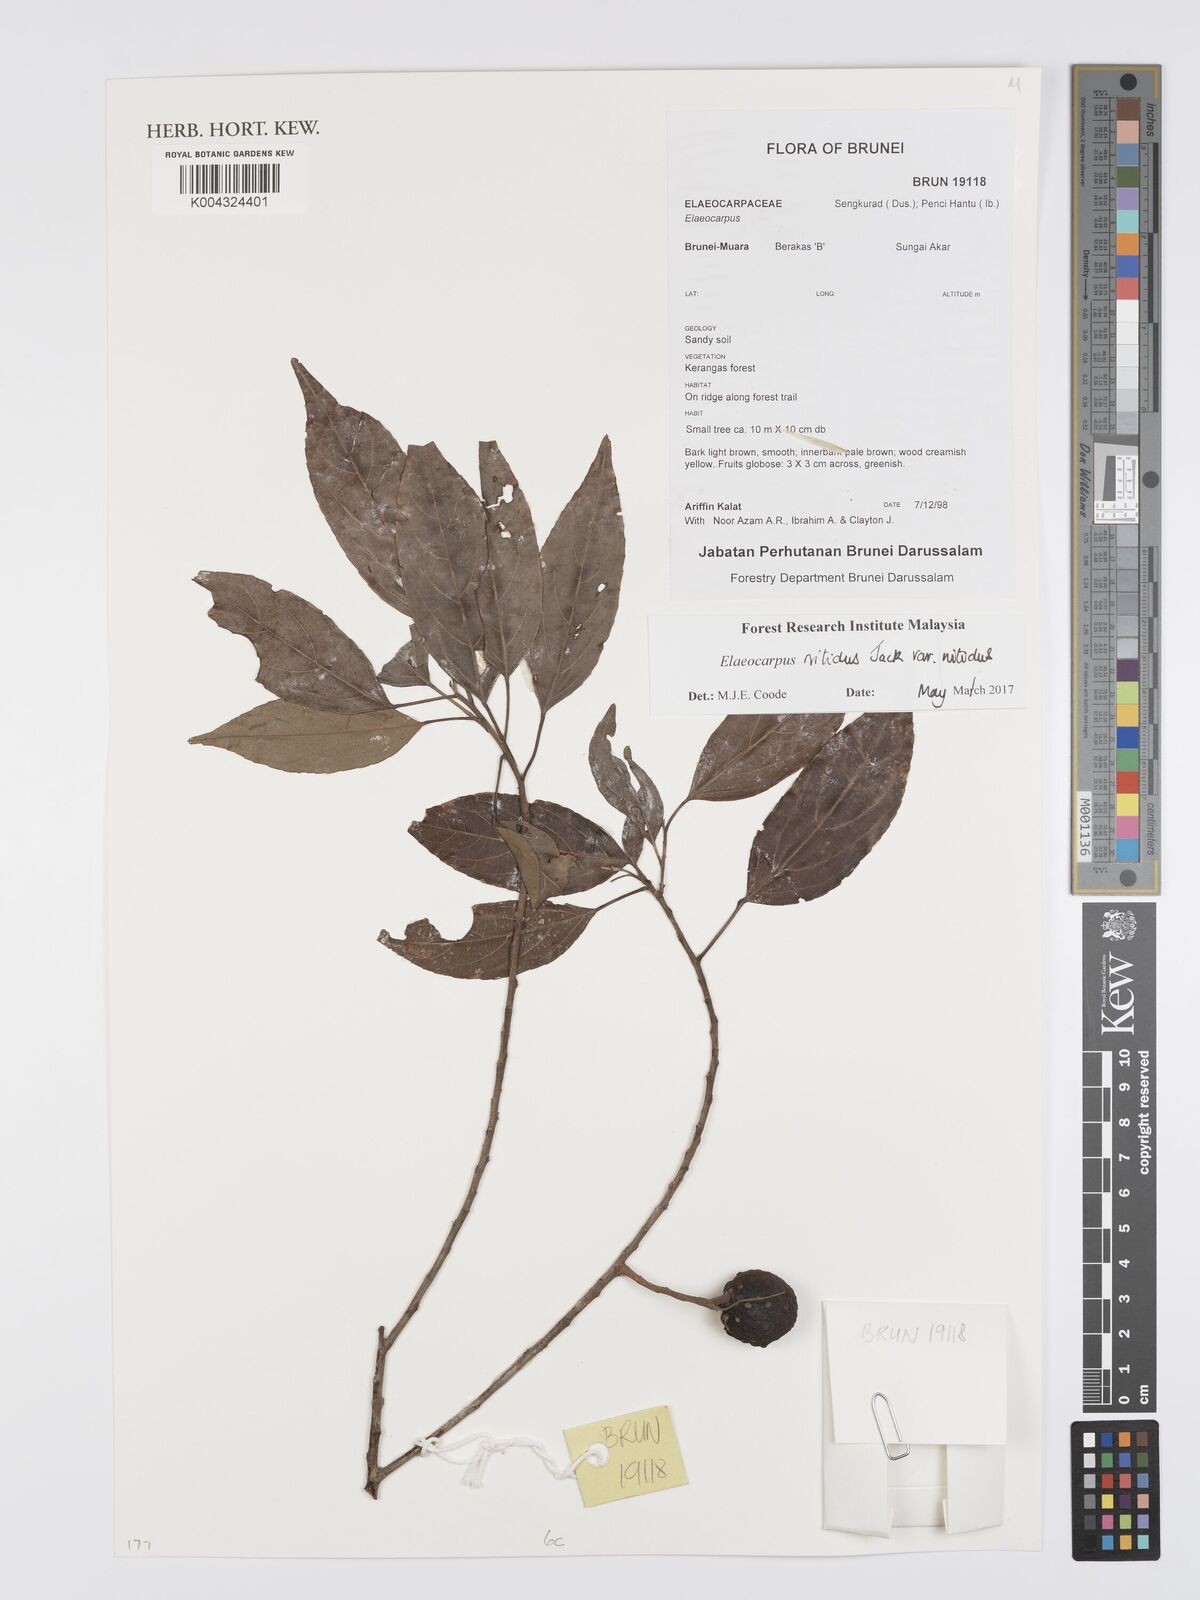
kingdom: Plantae
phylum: Tracheophyta
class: Magnoliopsida
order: Oxalidales
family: Elaeocarpaceae
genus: Elaeocarpus
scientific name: Elaeocarpus nitidus
